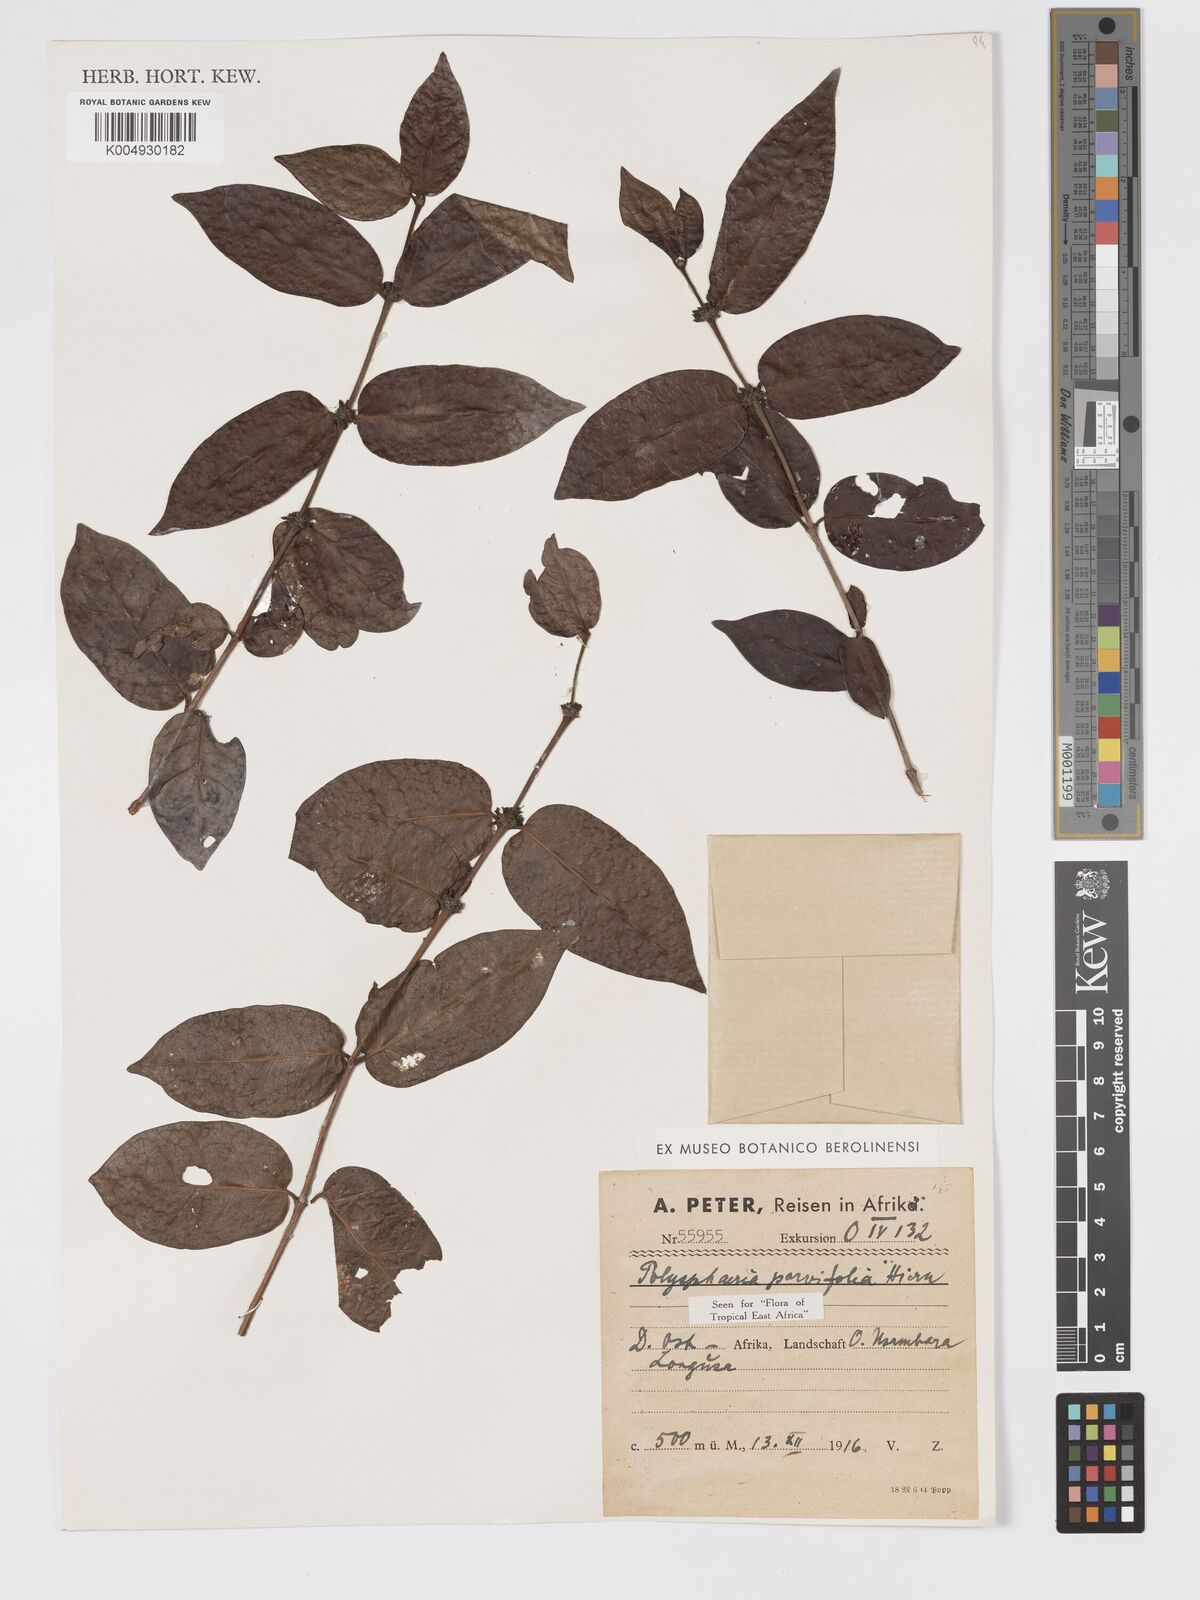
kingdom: Plantae
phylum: Tracheophyta
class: Magnoliopsida
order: Gentianales
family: Rubiaceae
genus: Polysphaeria
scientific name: Polysphaeria parvifolia
